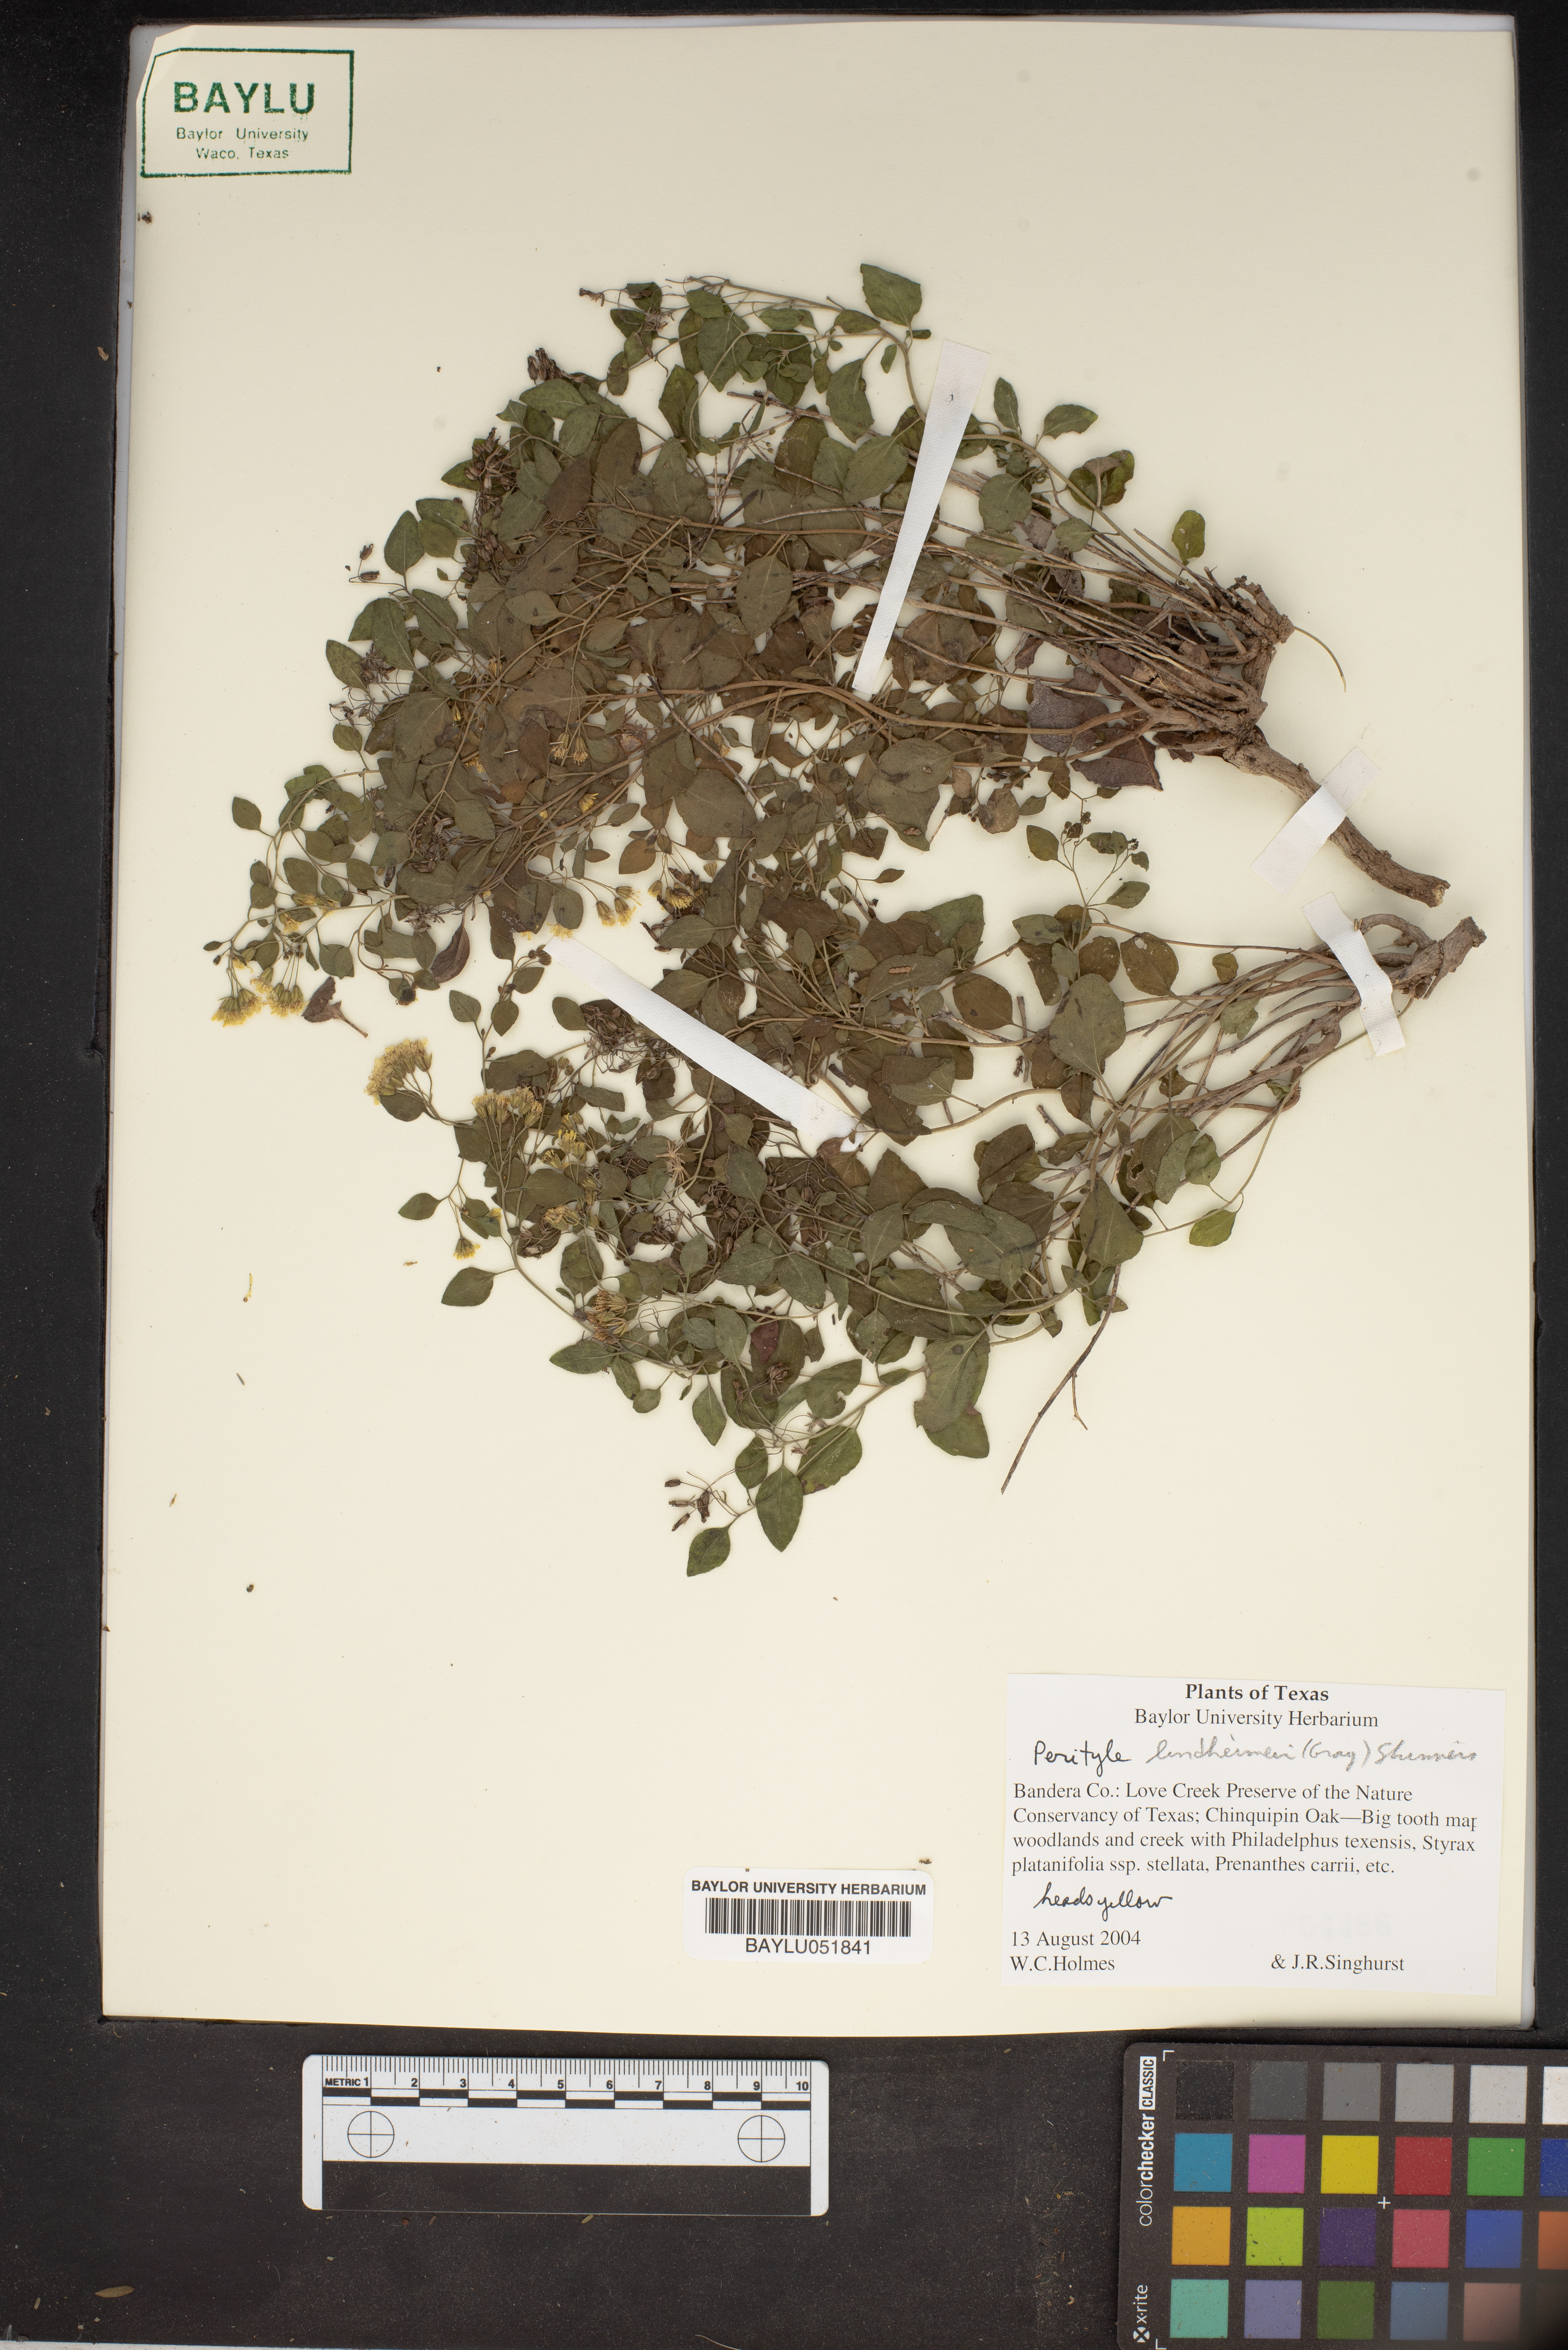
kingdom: Plantae
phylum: Tracheophyta
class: Magnoliopsida
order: Asterales
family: Asteraceae
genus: Laphamia
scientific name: Laphamia lindheimeri
